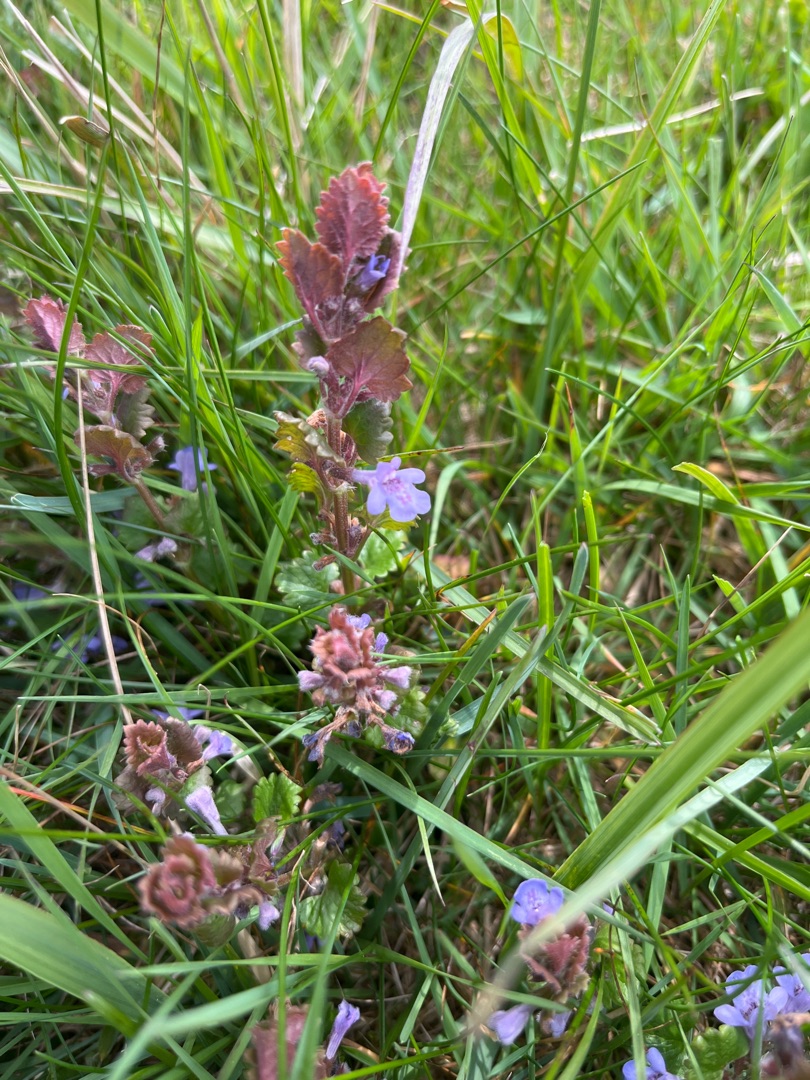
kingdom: Plantae
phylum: Tracheophyta
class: Magnoliopsida
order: Lamiales
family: Lamiaceae
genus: Glechoma
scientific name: Glechoma hederacea
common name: Korsknap
